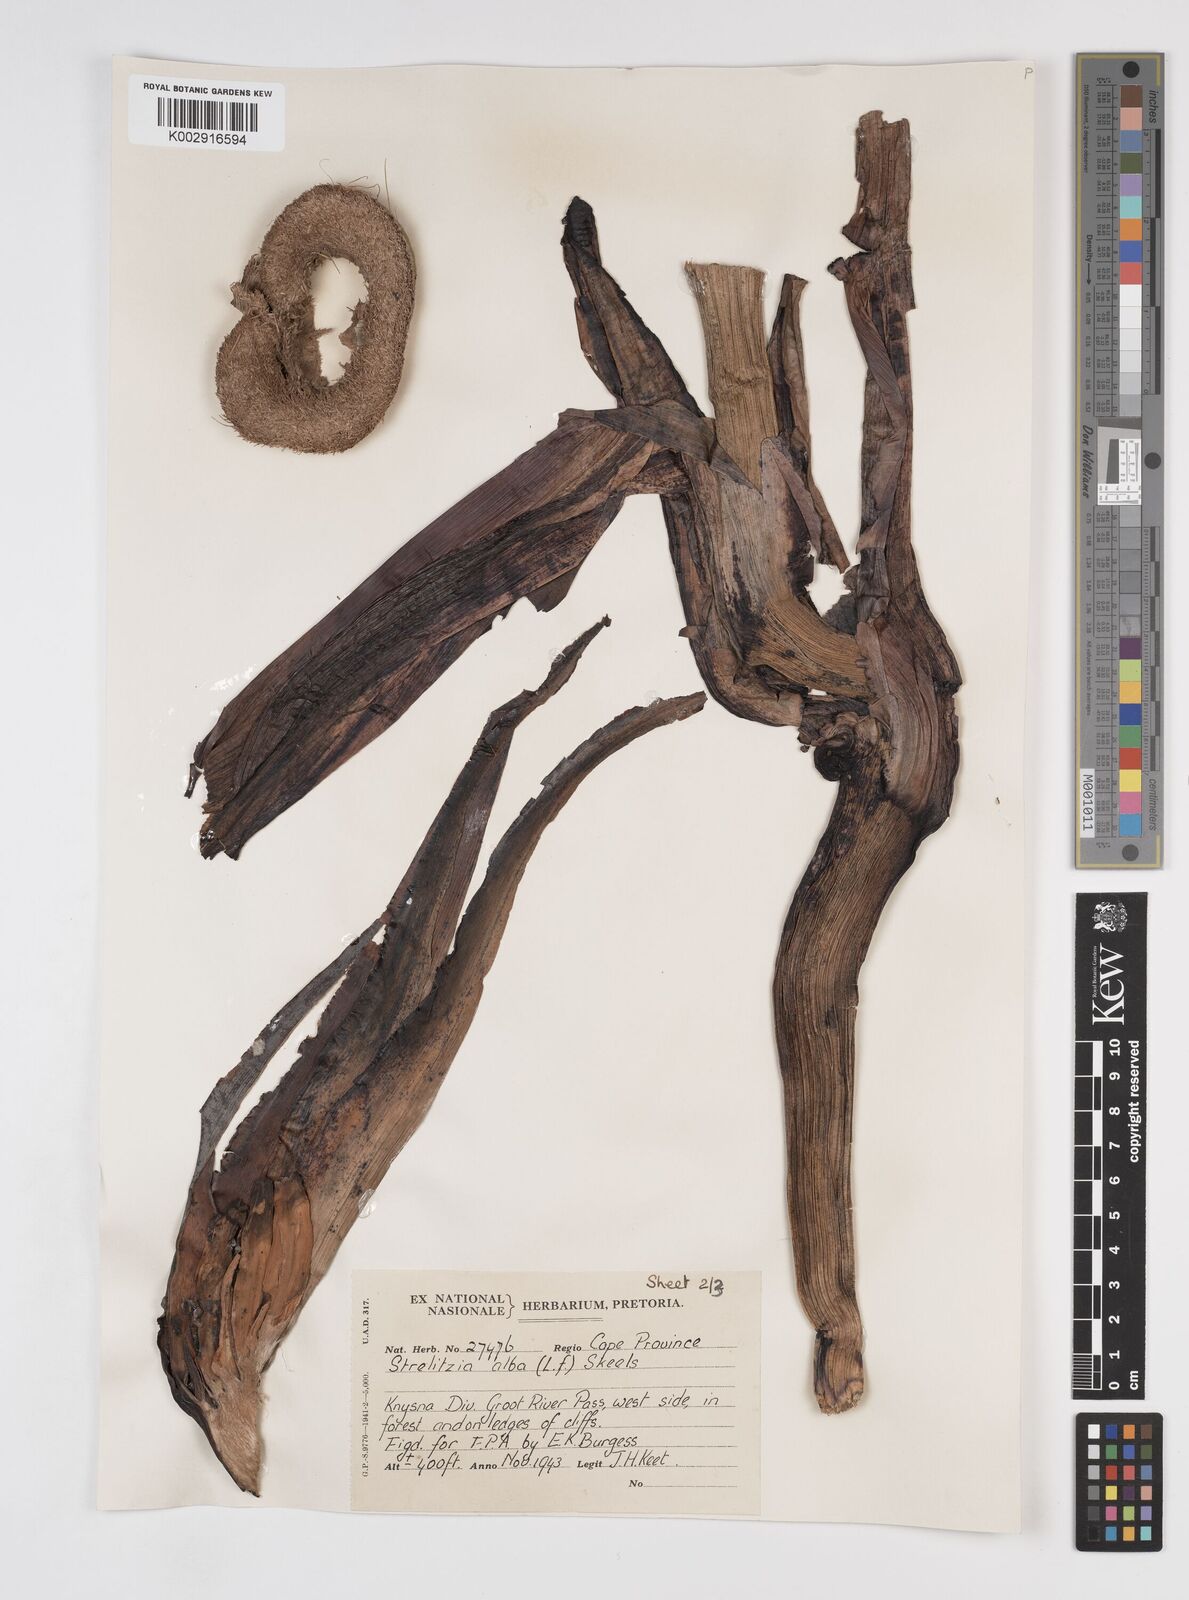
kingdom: Plantae
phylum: Tracheophyta
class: Liliopsida
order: Zingiberales
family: Strelitziaceae
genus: Strelitzia
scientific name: Strelitzia
